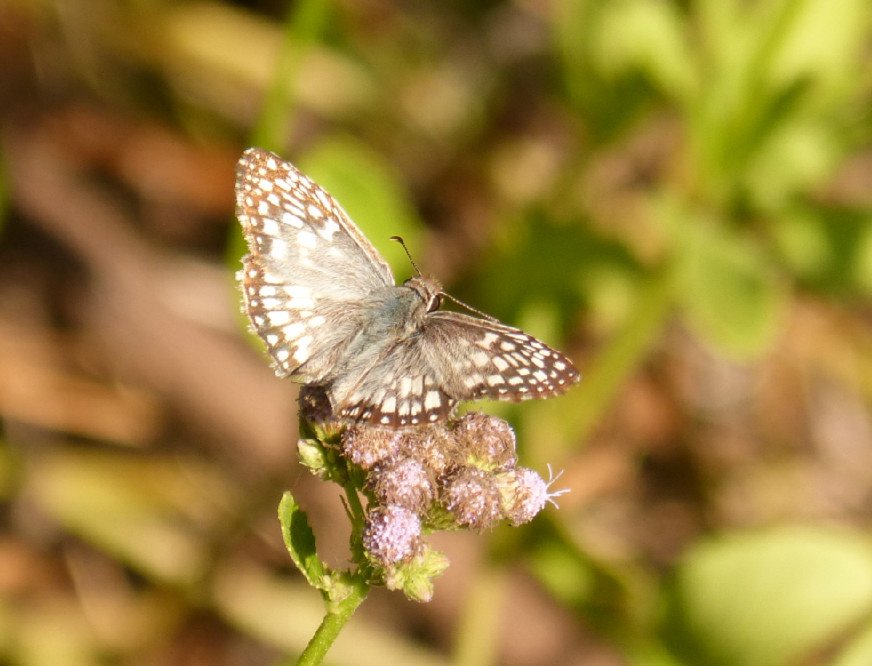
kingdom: Animalia
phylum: Arthropoda
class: Insecta
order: Lepidoptera
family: Hesperiidae
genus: Pyrgus
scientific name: Pyrgus oileus
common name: Tropical Checkered-Skipper
